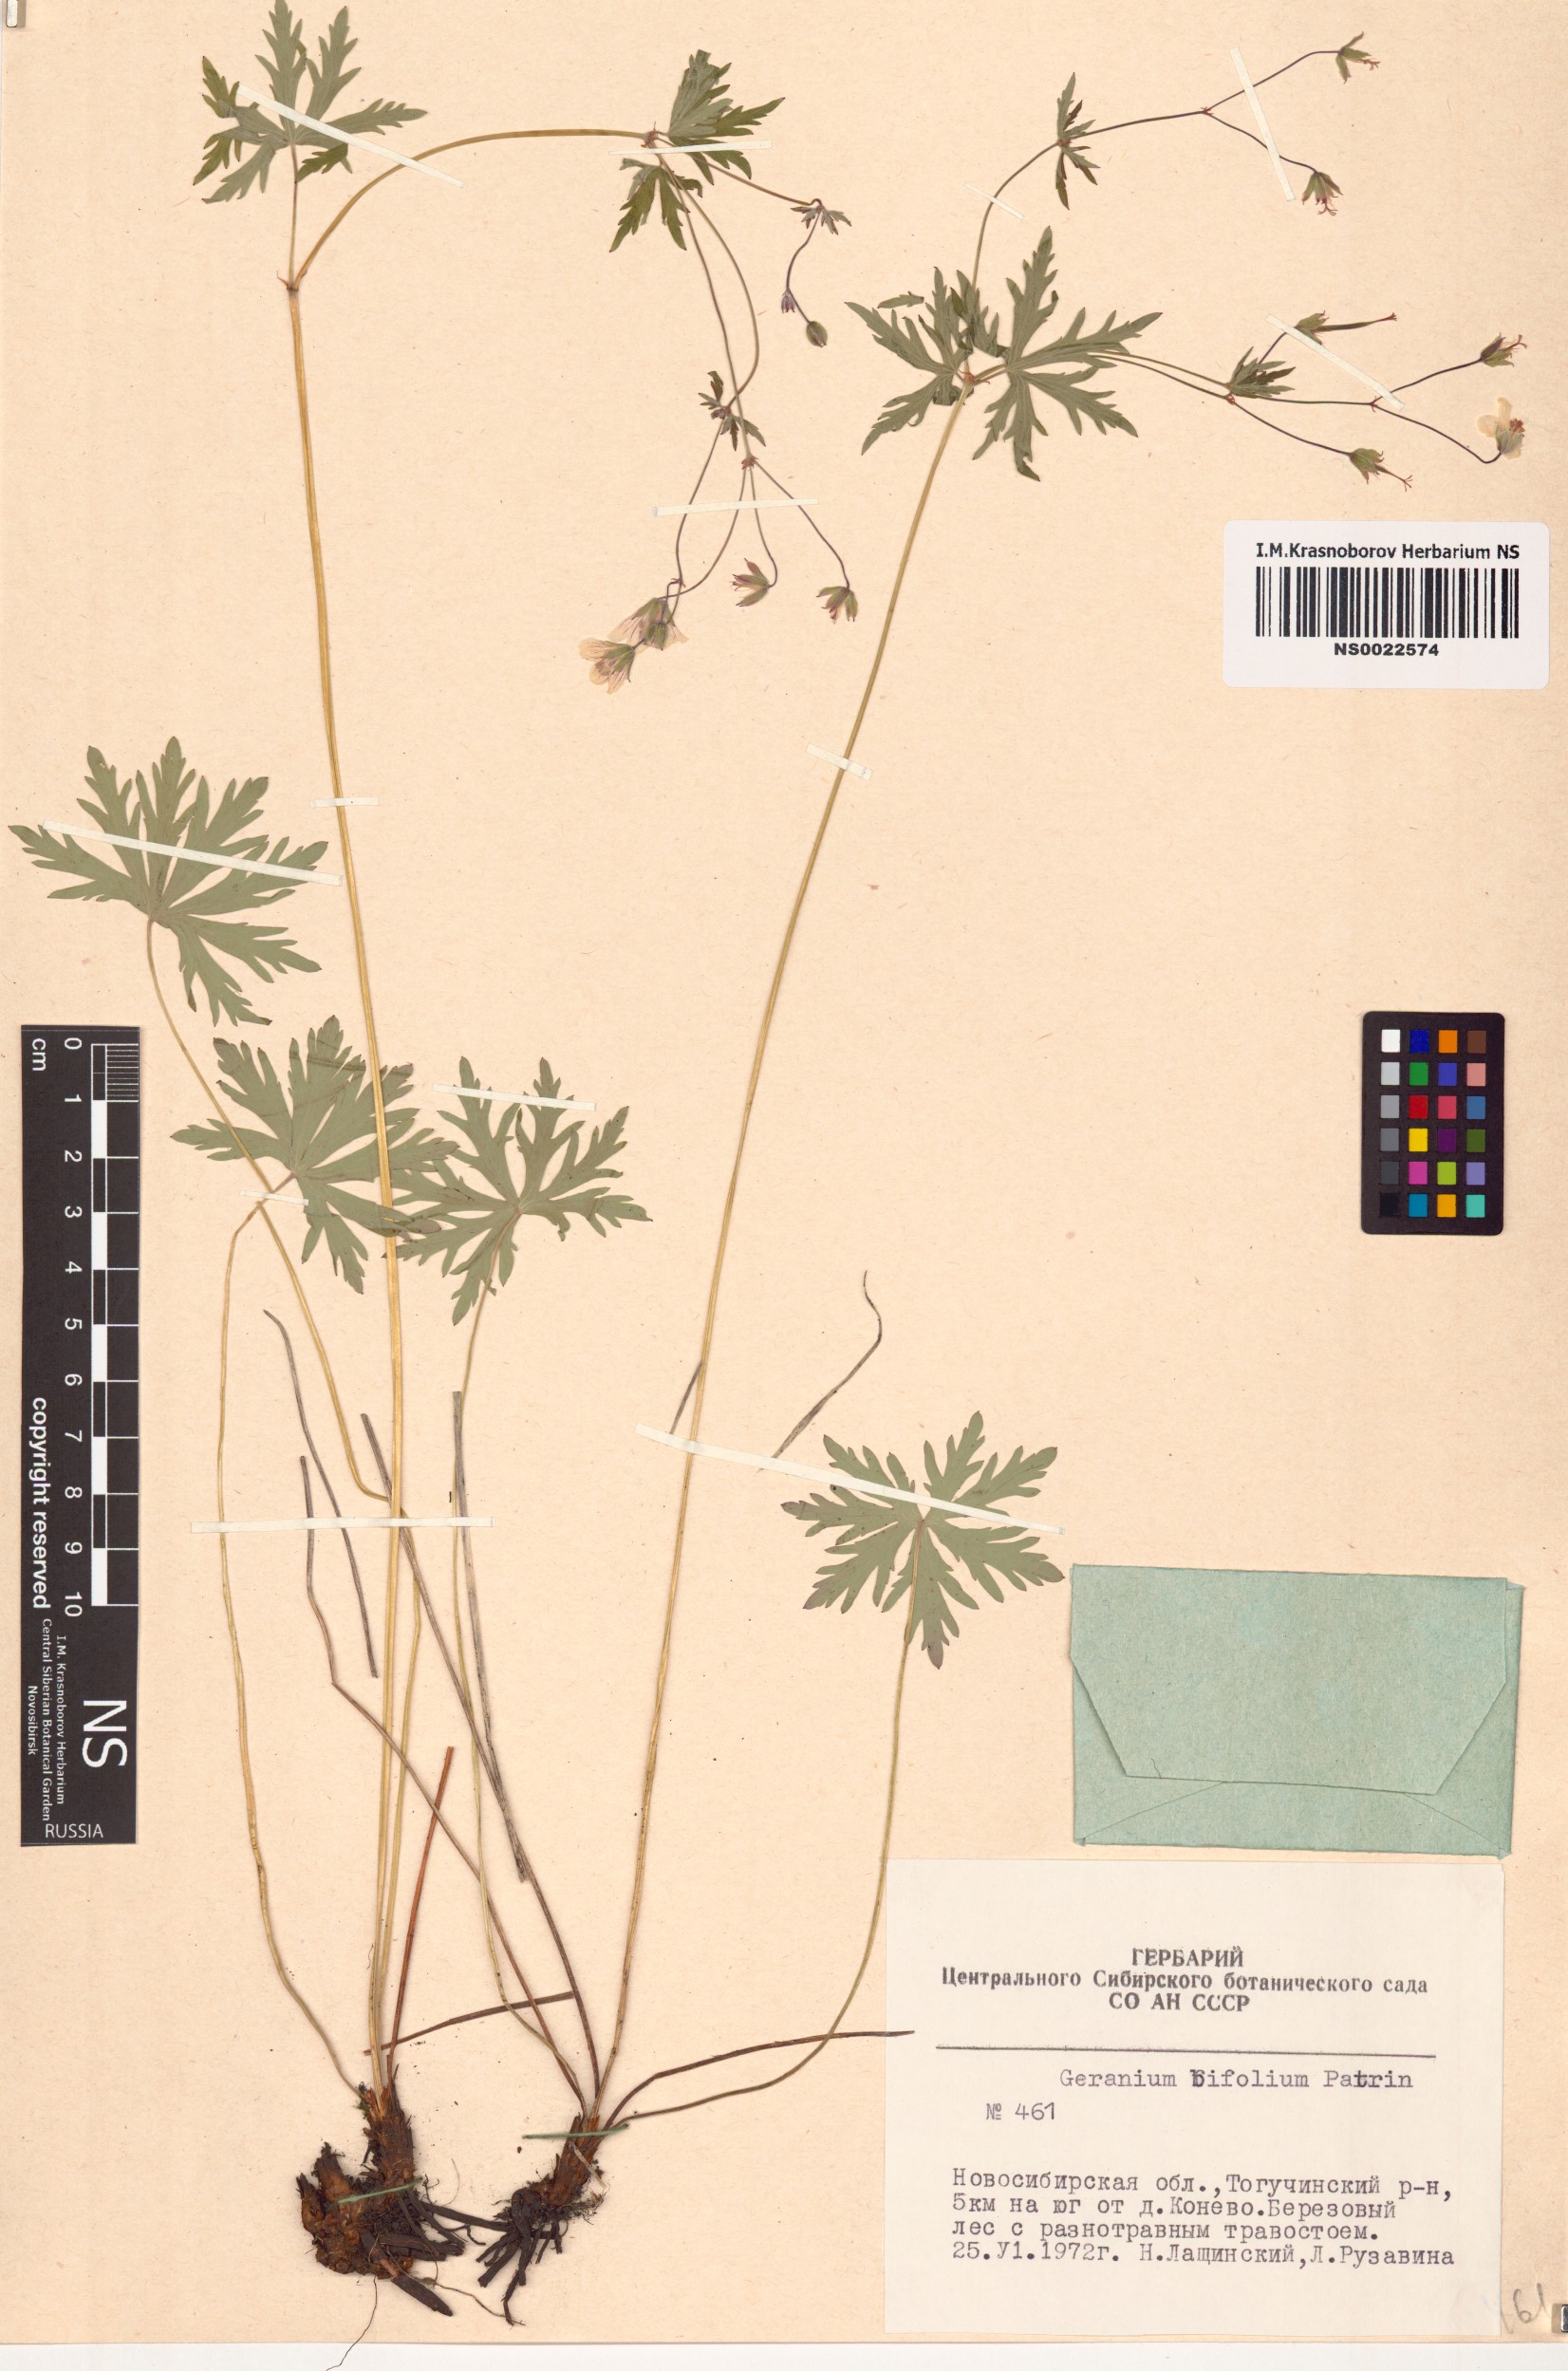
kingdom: Plantae
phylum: Tracheophyta
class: Magnoliopsida
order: Geraniales
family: Geraniaceae
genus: Geranium
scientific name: Geranium pseudosibiricum
